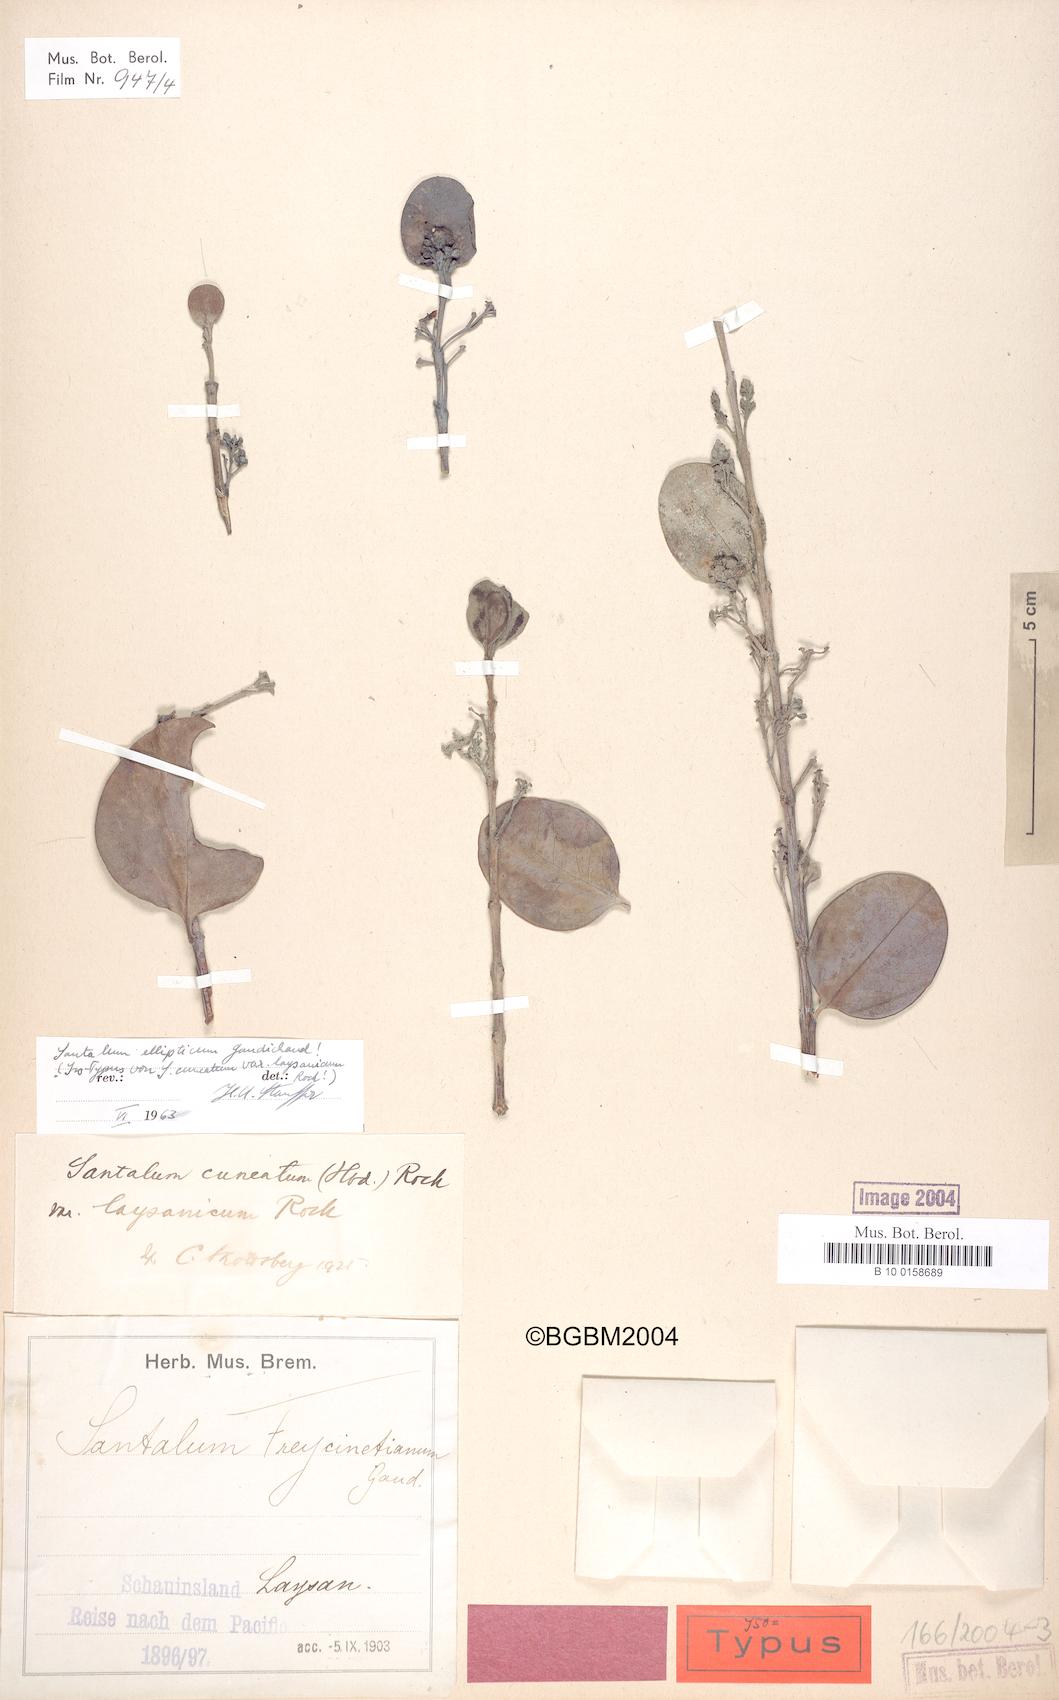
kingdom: Plantae
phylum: Tracheophyta
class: Magnoliopsida
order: Santalales
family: Santalaceae
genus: Santalum
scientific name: Santalum ellipticum
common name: Coast sandalwood
